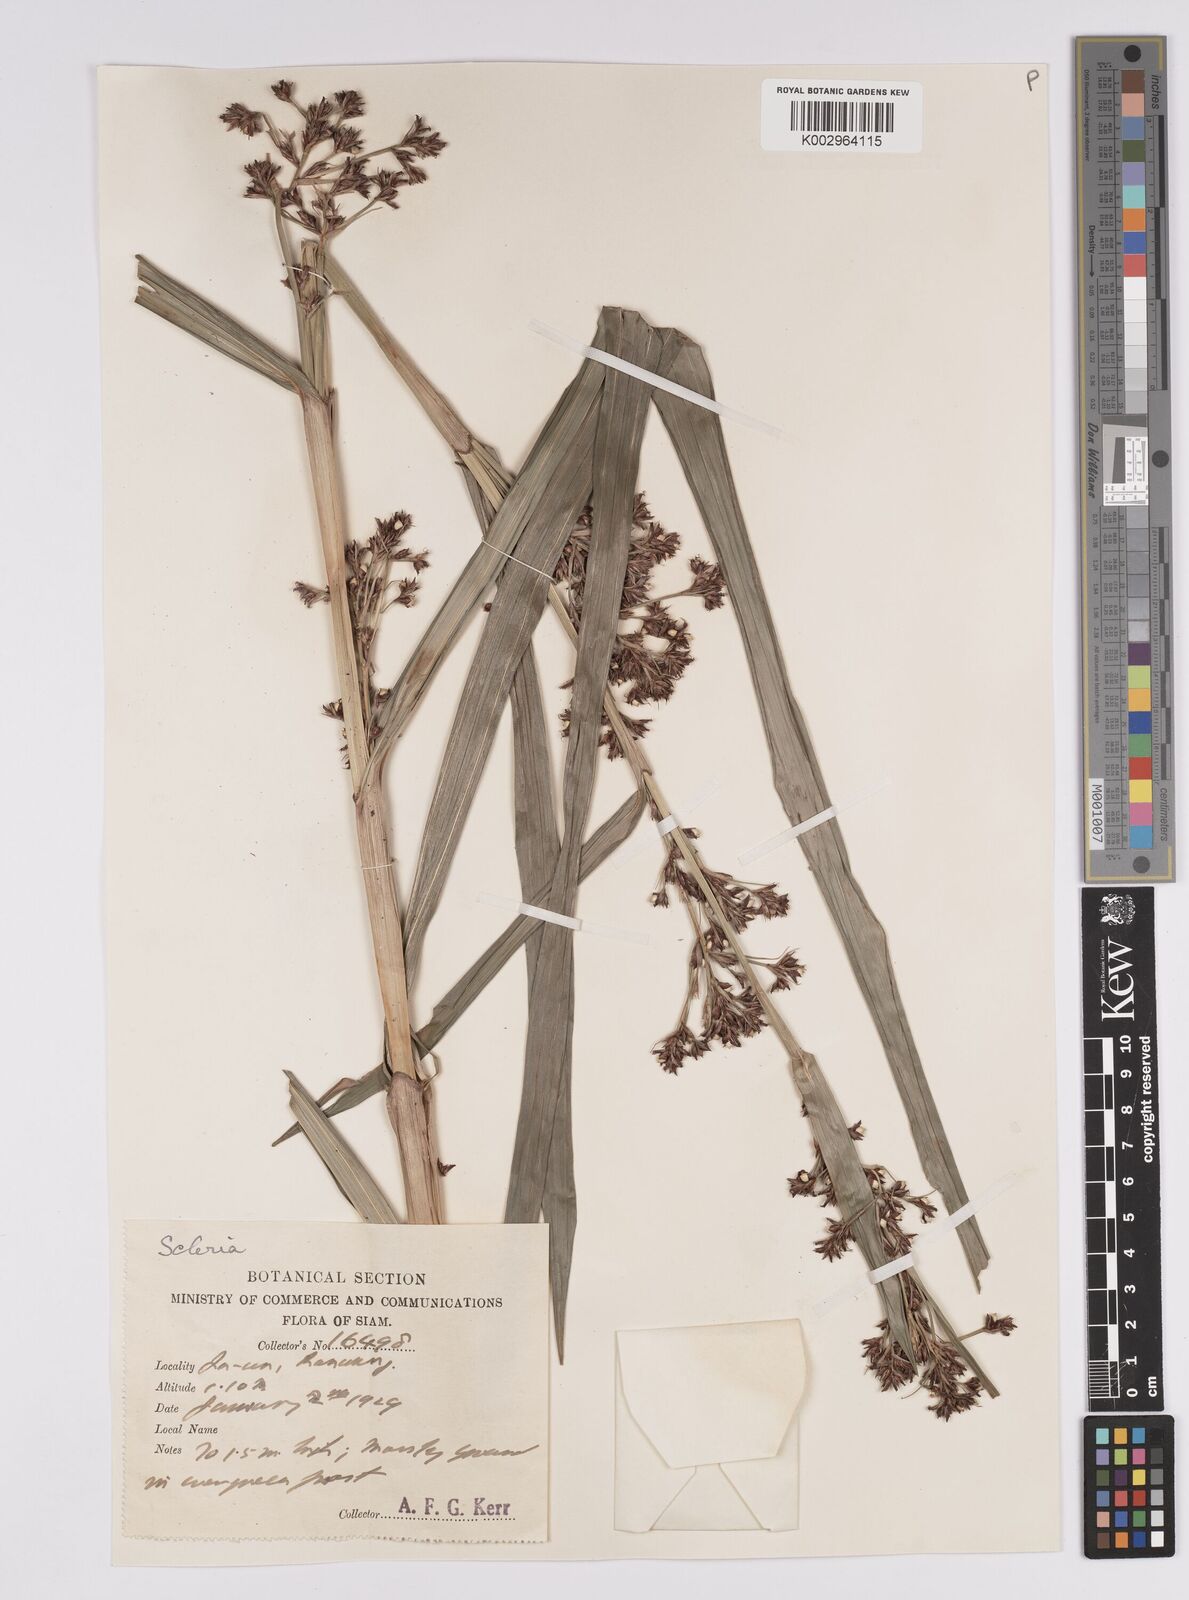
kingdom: Plantae
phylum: Tracheophyta
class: Liliopsida
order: Poales
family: Cyperaceae
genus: Scleria
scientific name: Scleria corymbosa
